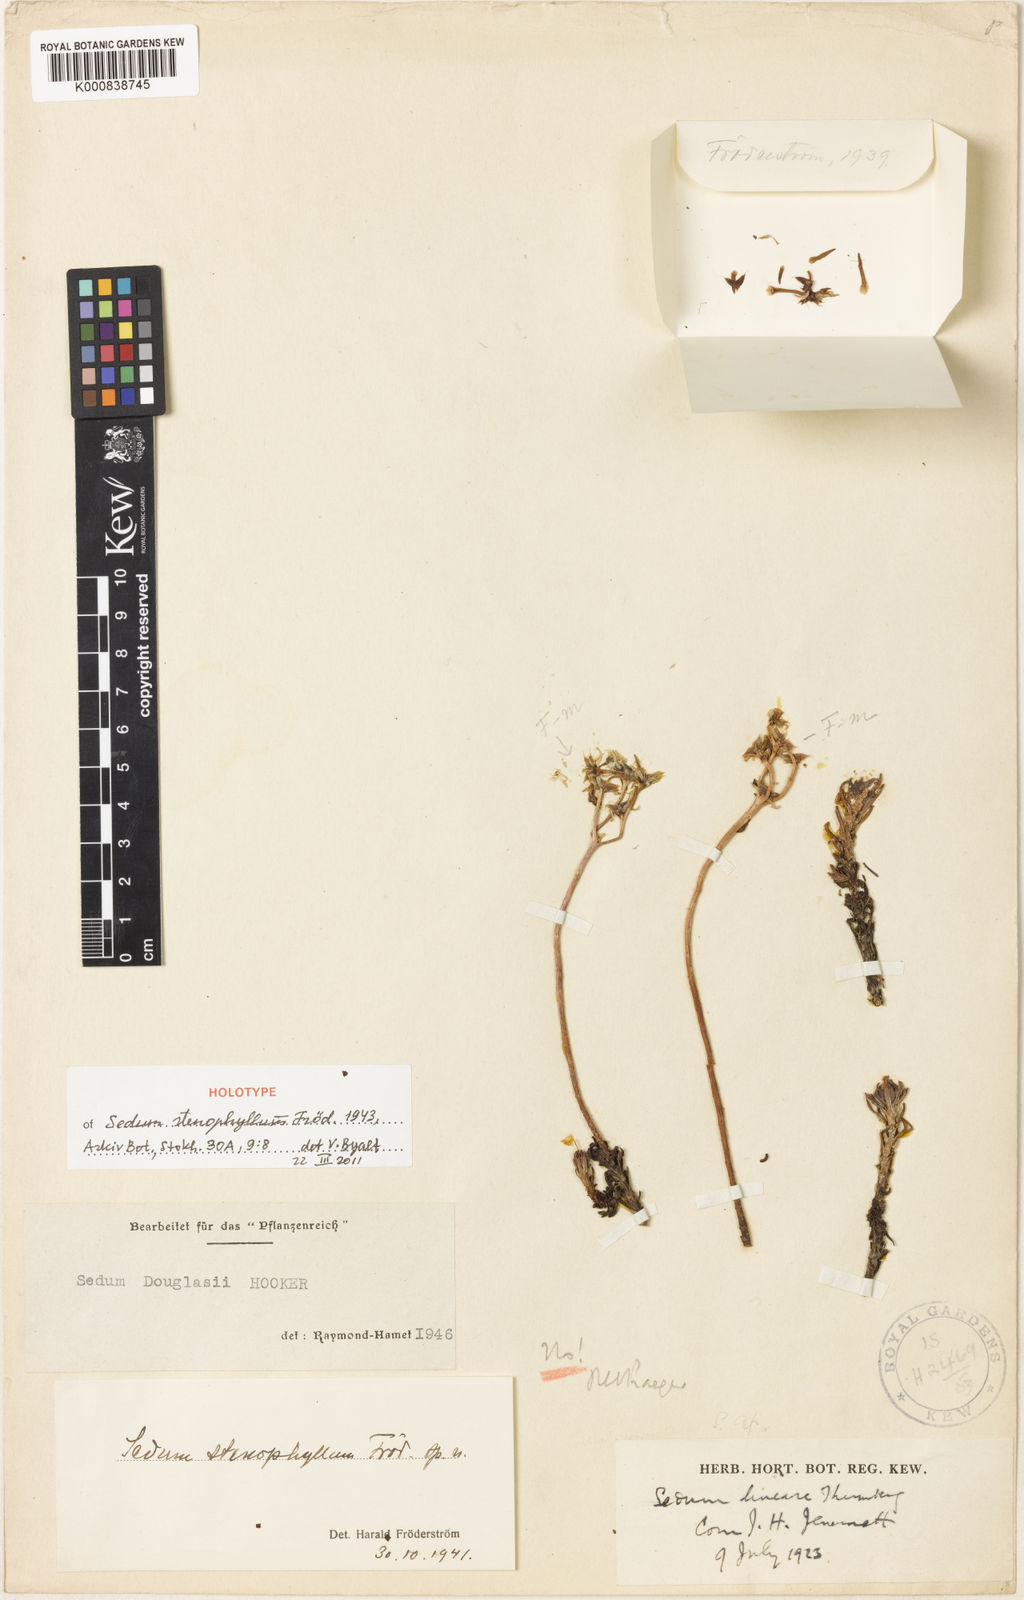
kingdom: Plantae
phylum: Tracheophyta
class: Magnoliopsida
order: Saxifragales
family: Crassulaceae
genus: Sedum
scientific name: Sedum
